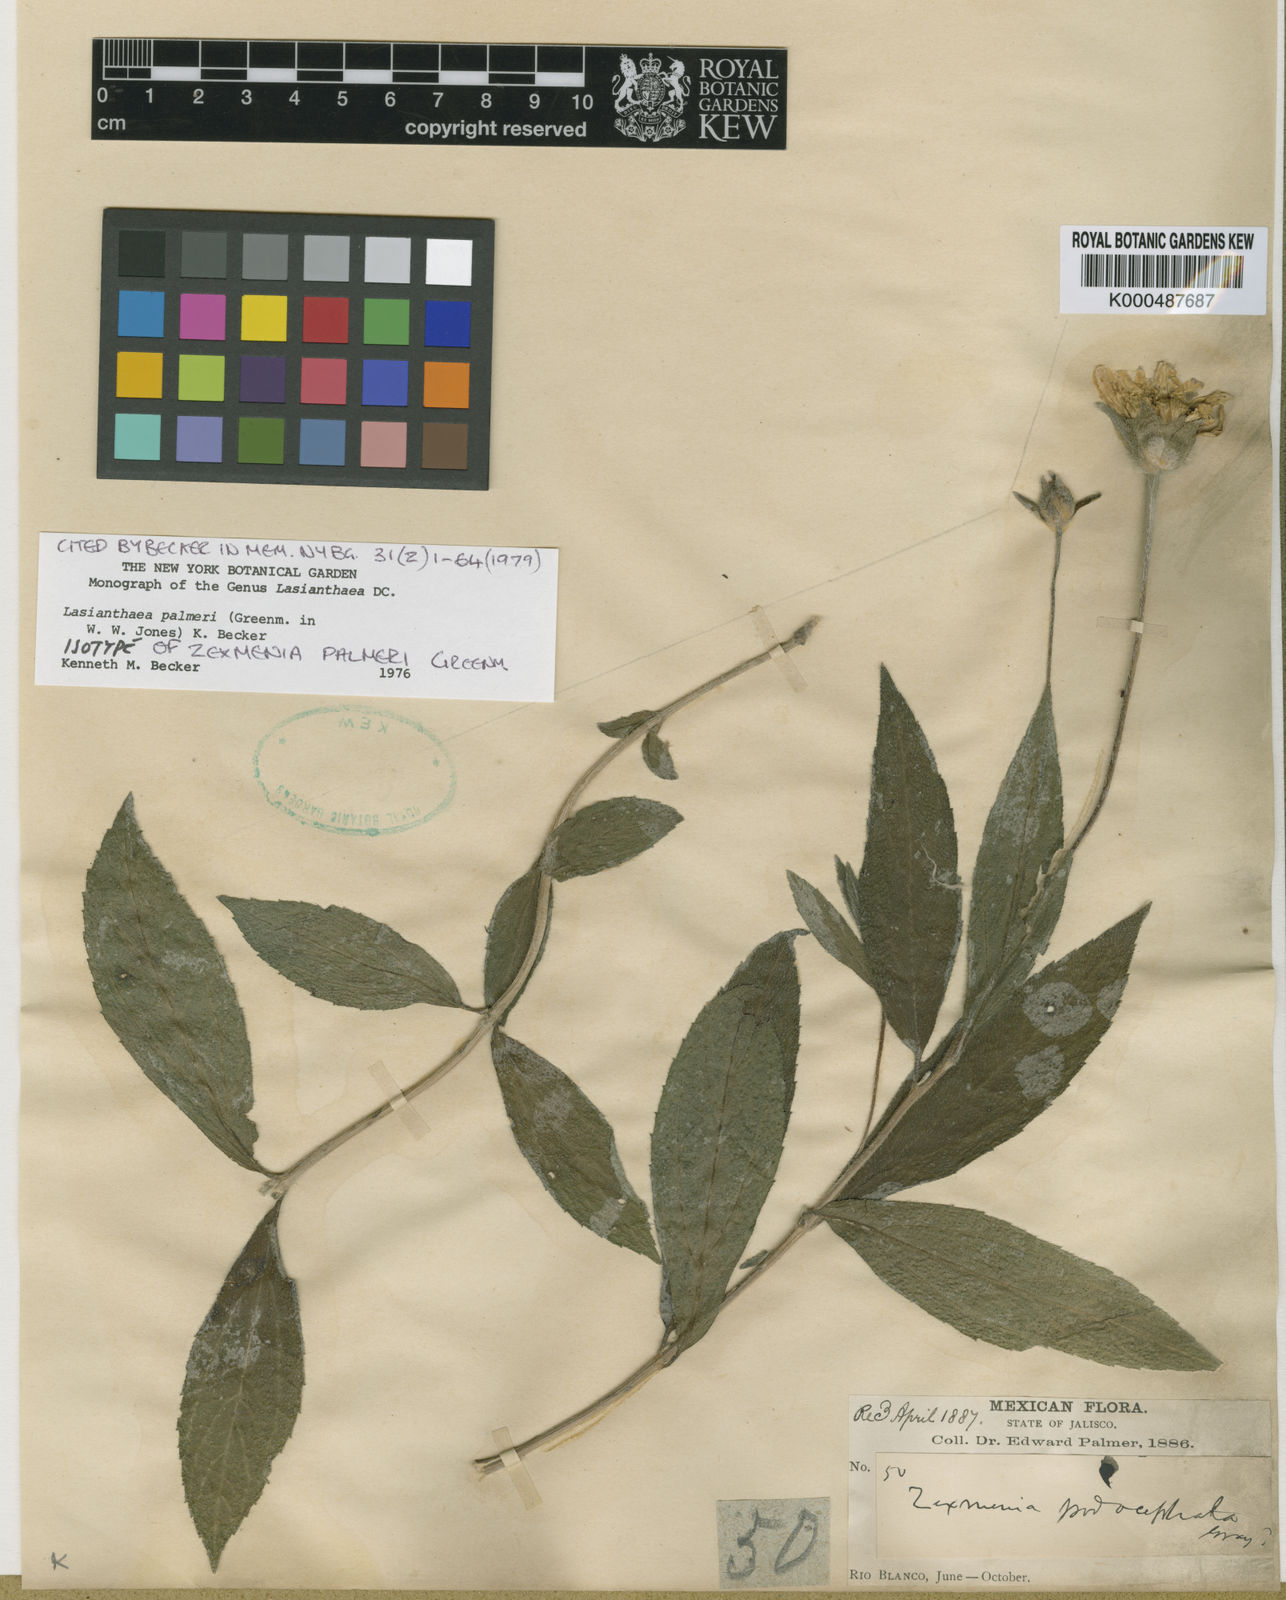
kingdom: Plantae
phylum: Tracheophyta
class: Magnoliopsida
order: Asterales
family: Asteraceae
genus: Lasianthaea
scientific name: Lasianthaea palmeri
